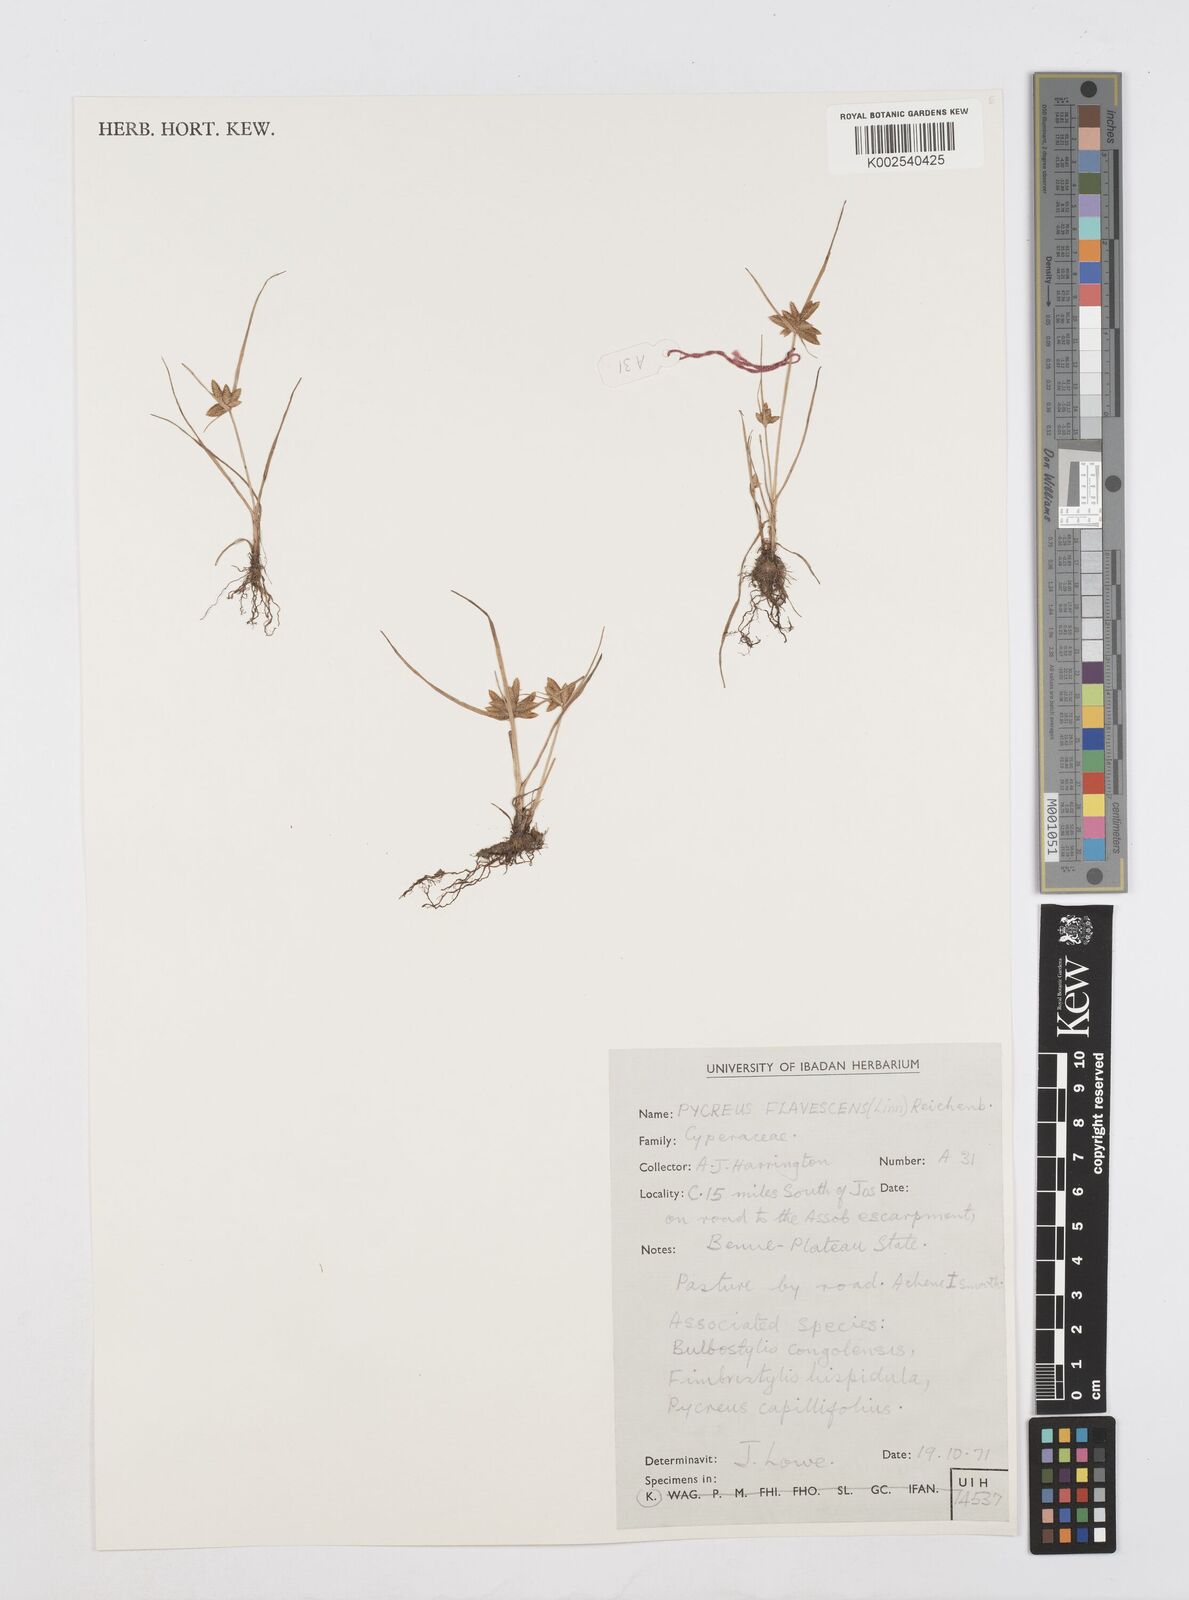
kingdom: Plantae
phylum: Tracheophyta
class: Liliopsida
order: Poales
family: Cyperaceae
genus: Cyperus
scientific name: Cyperus flavescens
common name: Yellow galingale
